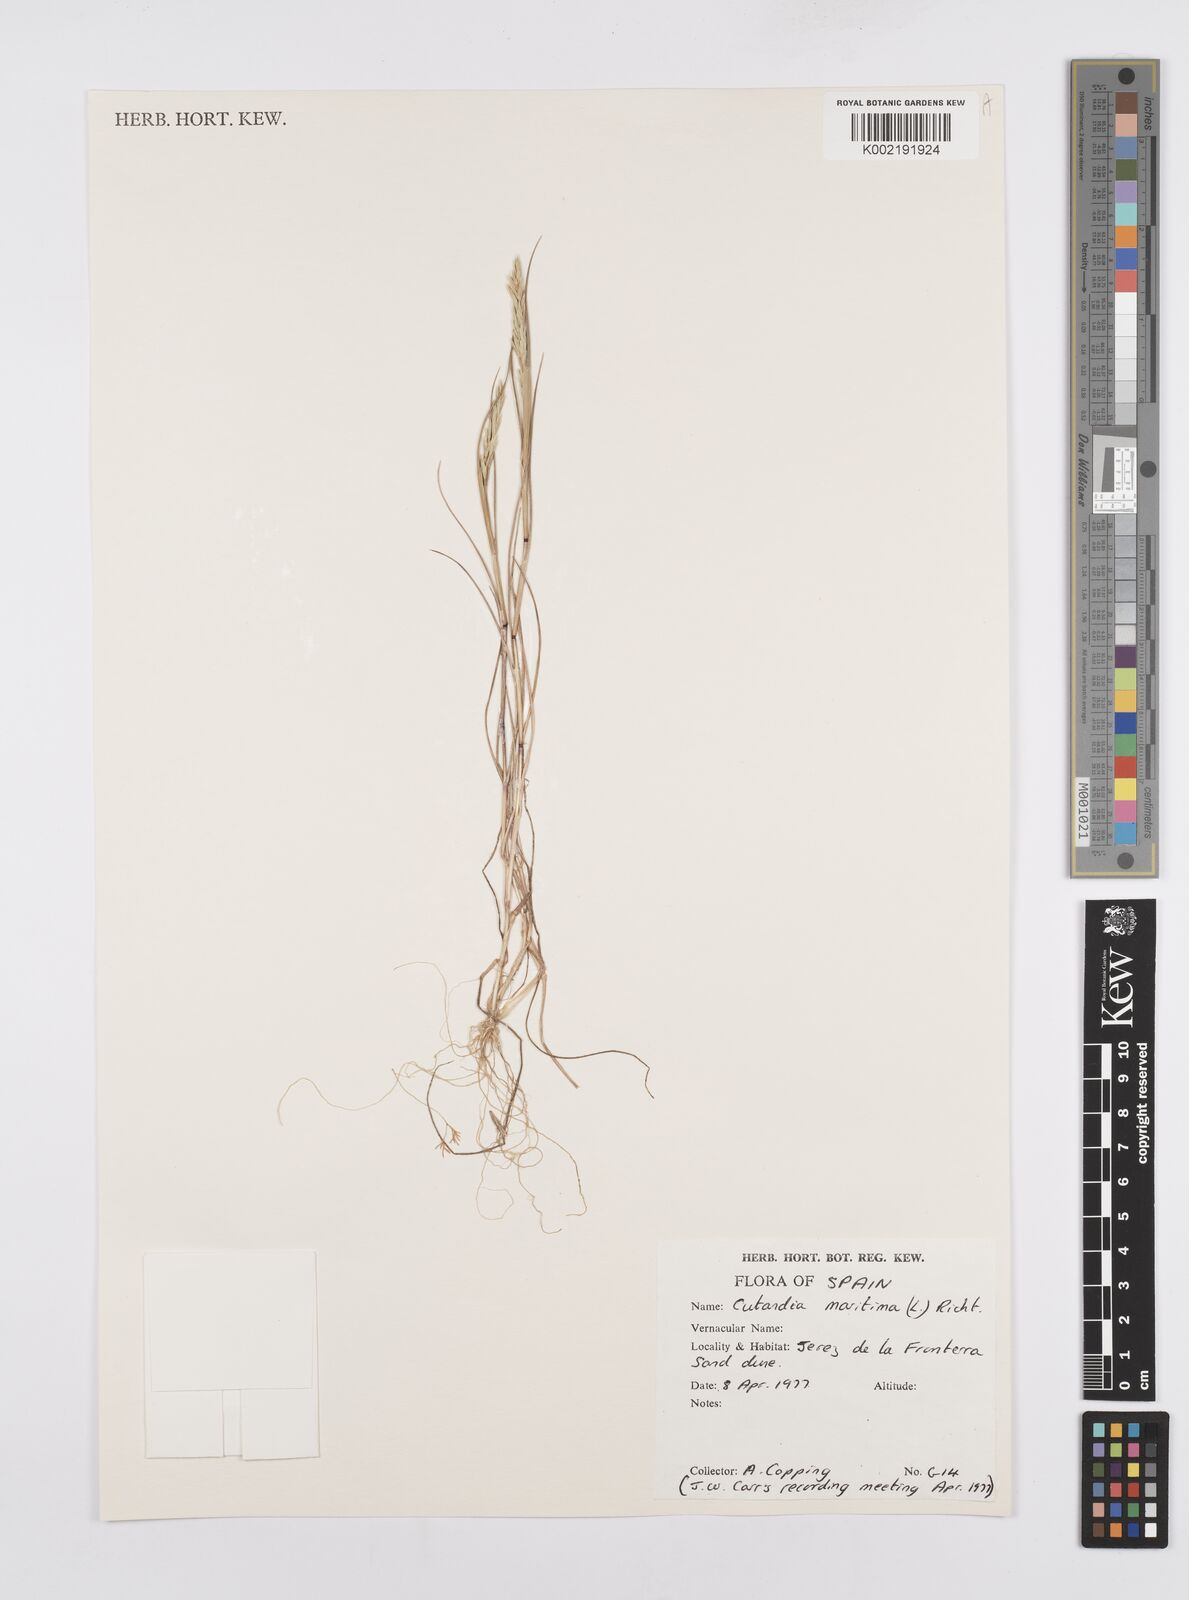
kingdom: Plantae
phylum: Tracheophyta
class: Liliopsida
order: Poales
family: Poaceae
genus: Cutandia
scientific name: Cutandia maritima
